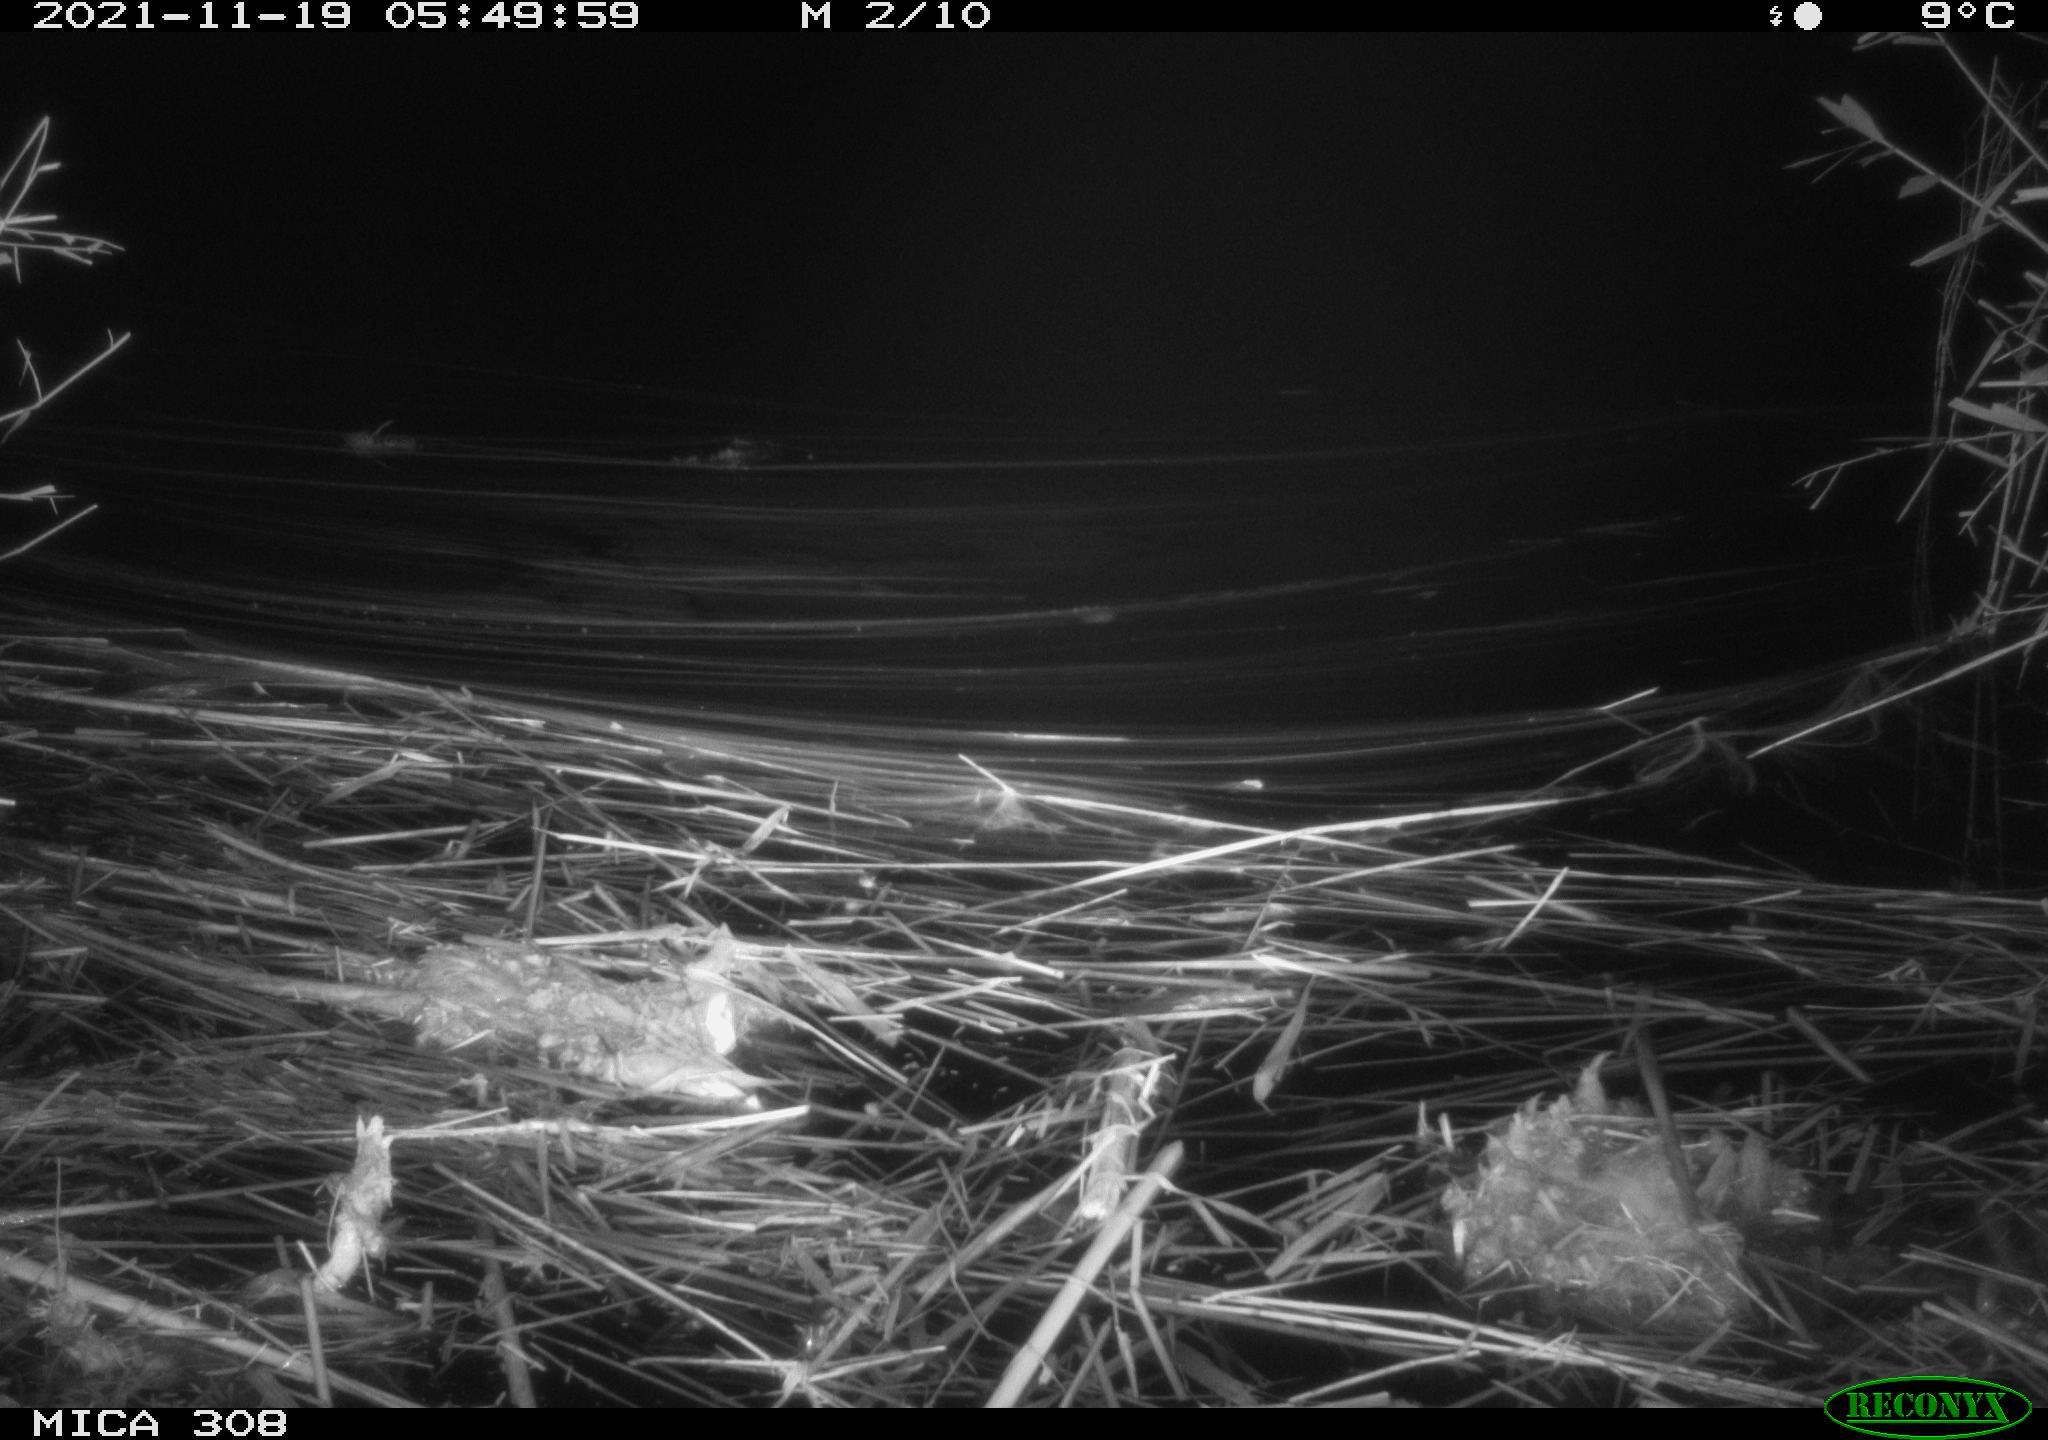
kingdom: Animalia
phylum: Chordata
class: Mammalia
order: Rodentia
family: Muridae
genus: Rattus
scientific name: Rattus norvegicus
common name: Brown rat
